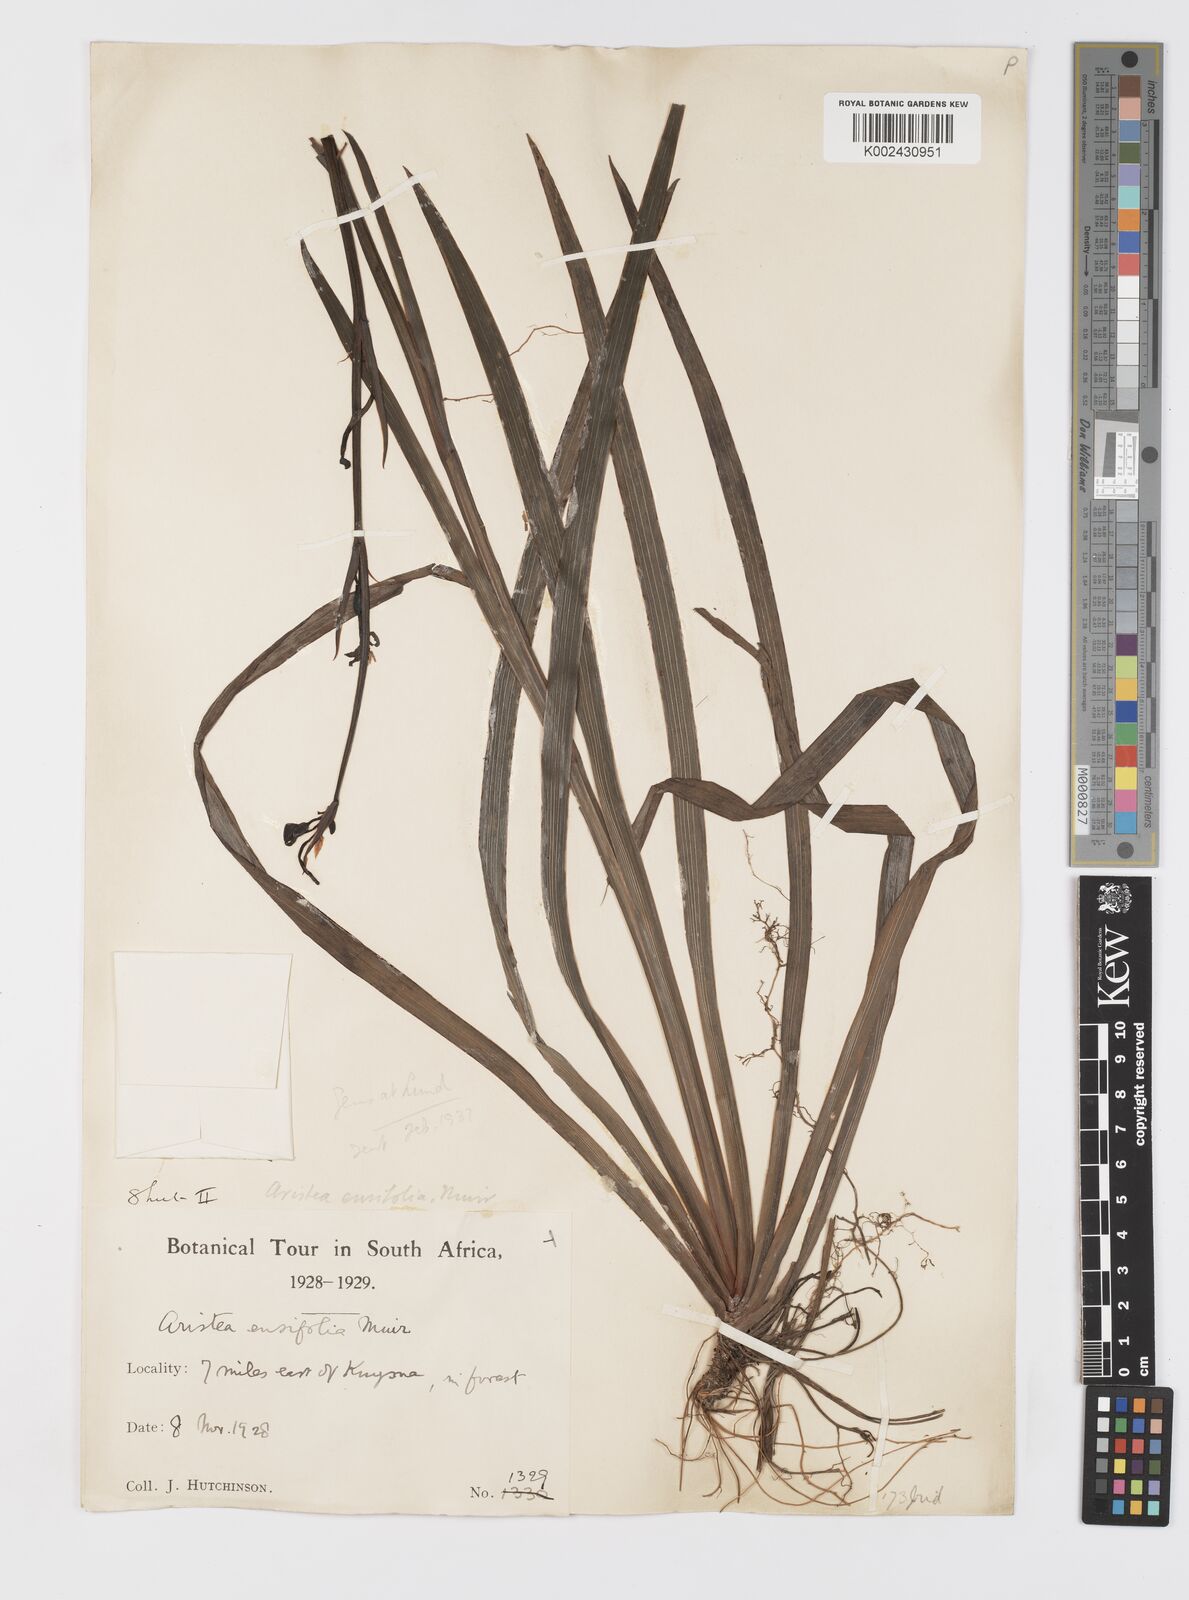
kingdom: Plantae
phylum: Tracheophyta
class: Liliopsida
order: Asparagales
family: Iridaceae
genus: Aristea
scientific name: Aristea ensifolia
